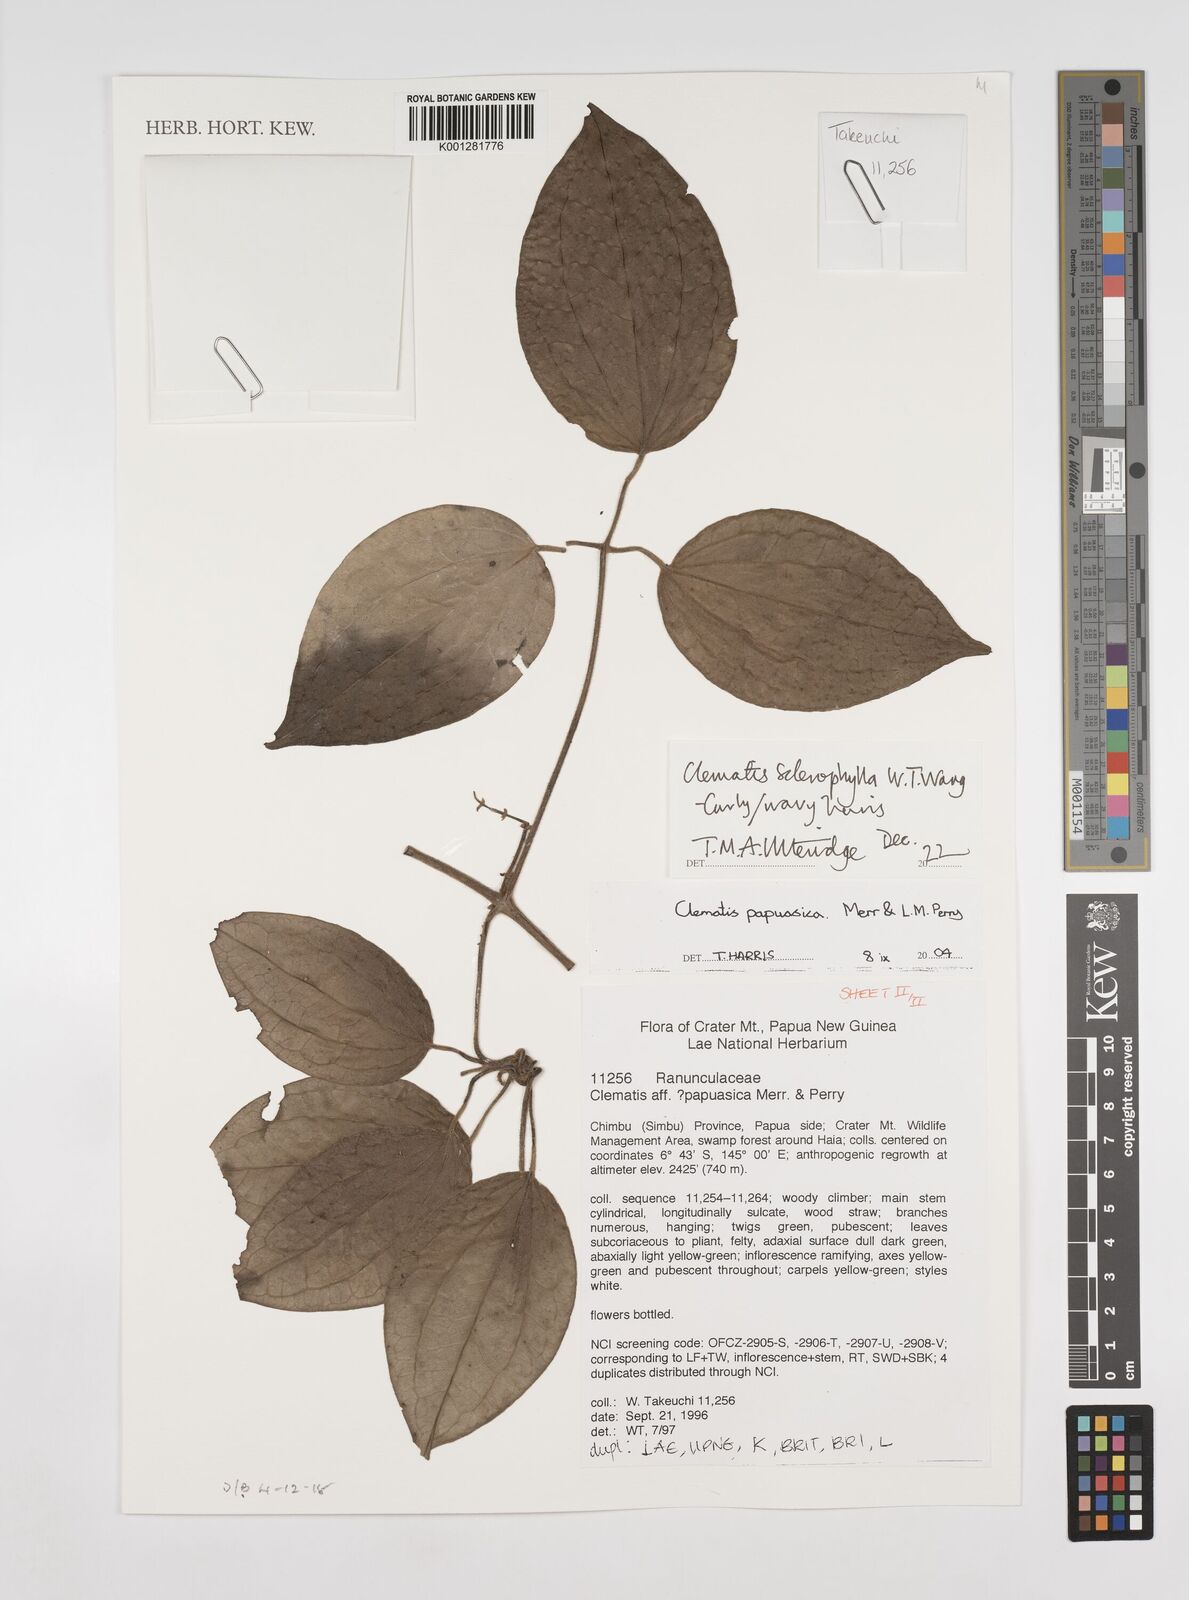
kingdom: Plantae
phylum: Tracheophyta
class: Magnoliopsida
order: Ranunculales
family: Ranunculaceae
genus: Clematis
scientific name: Clematis sclerophylla
